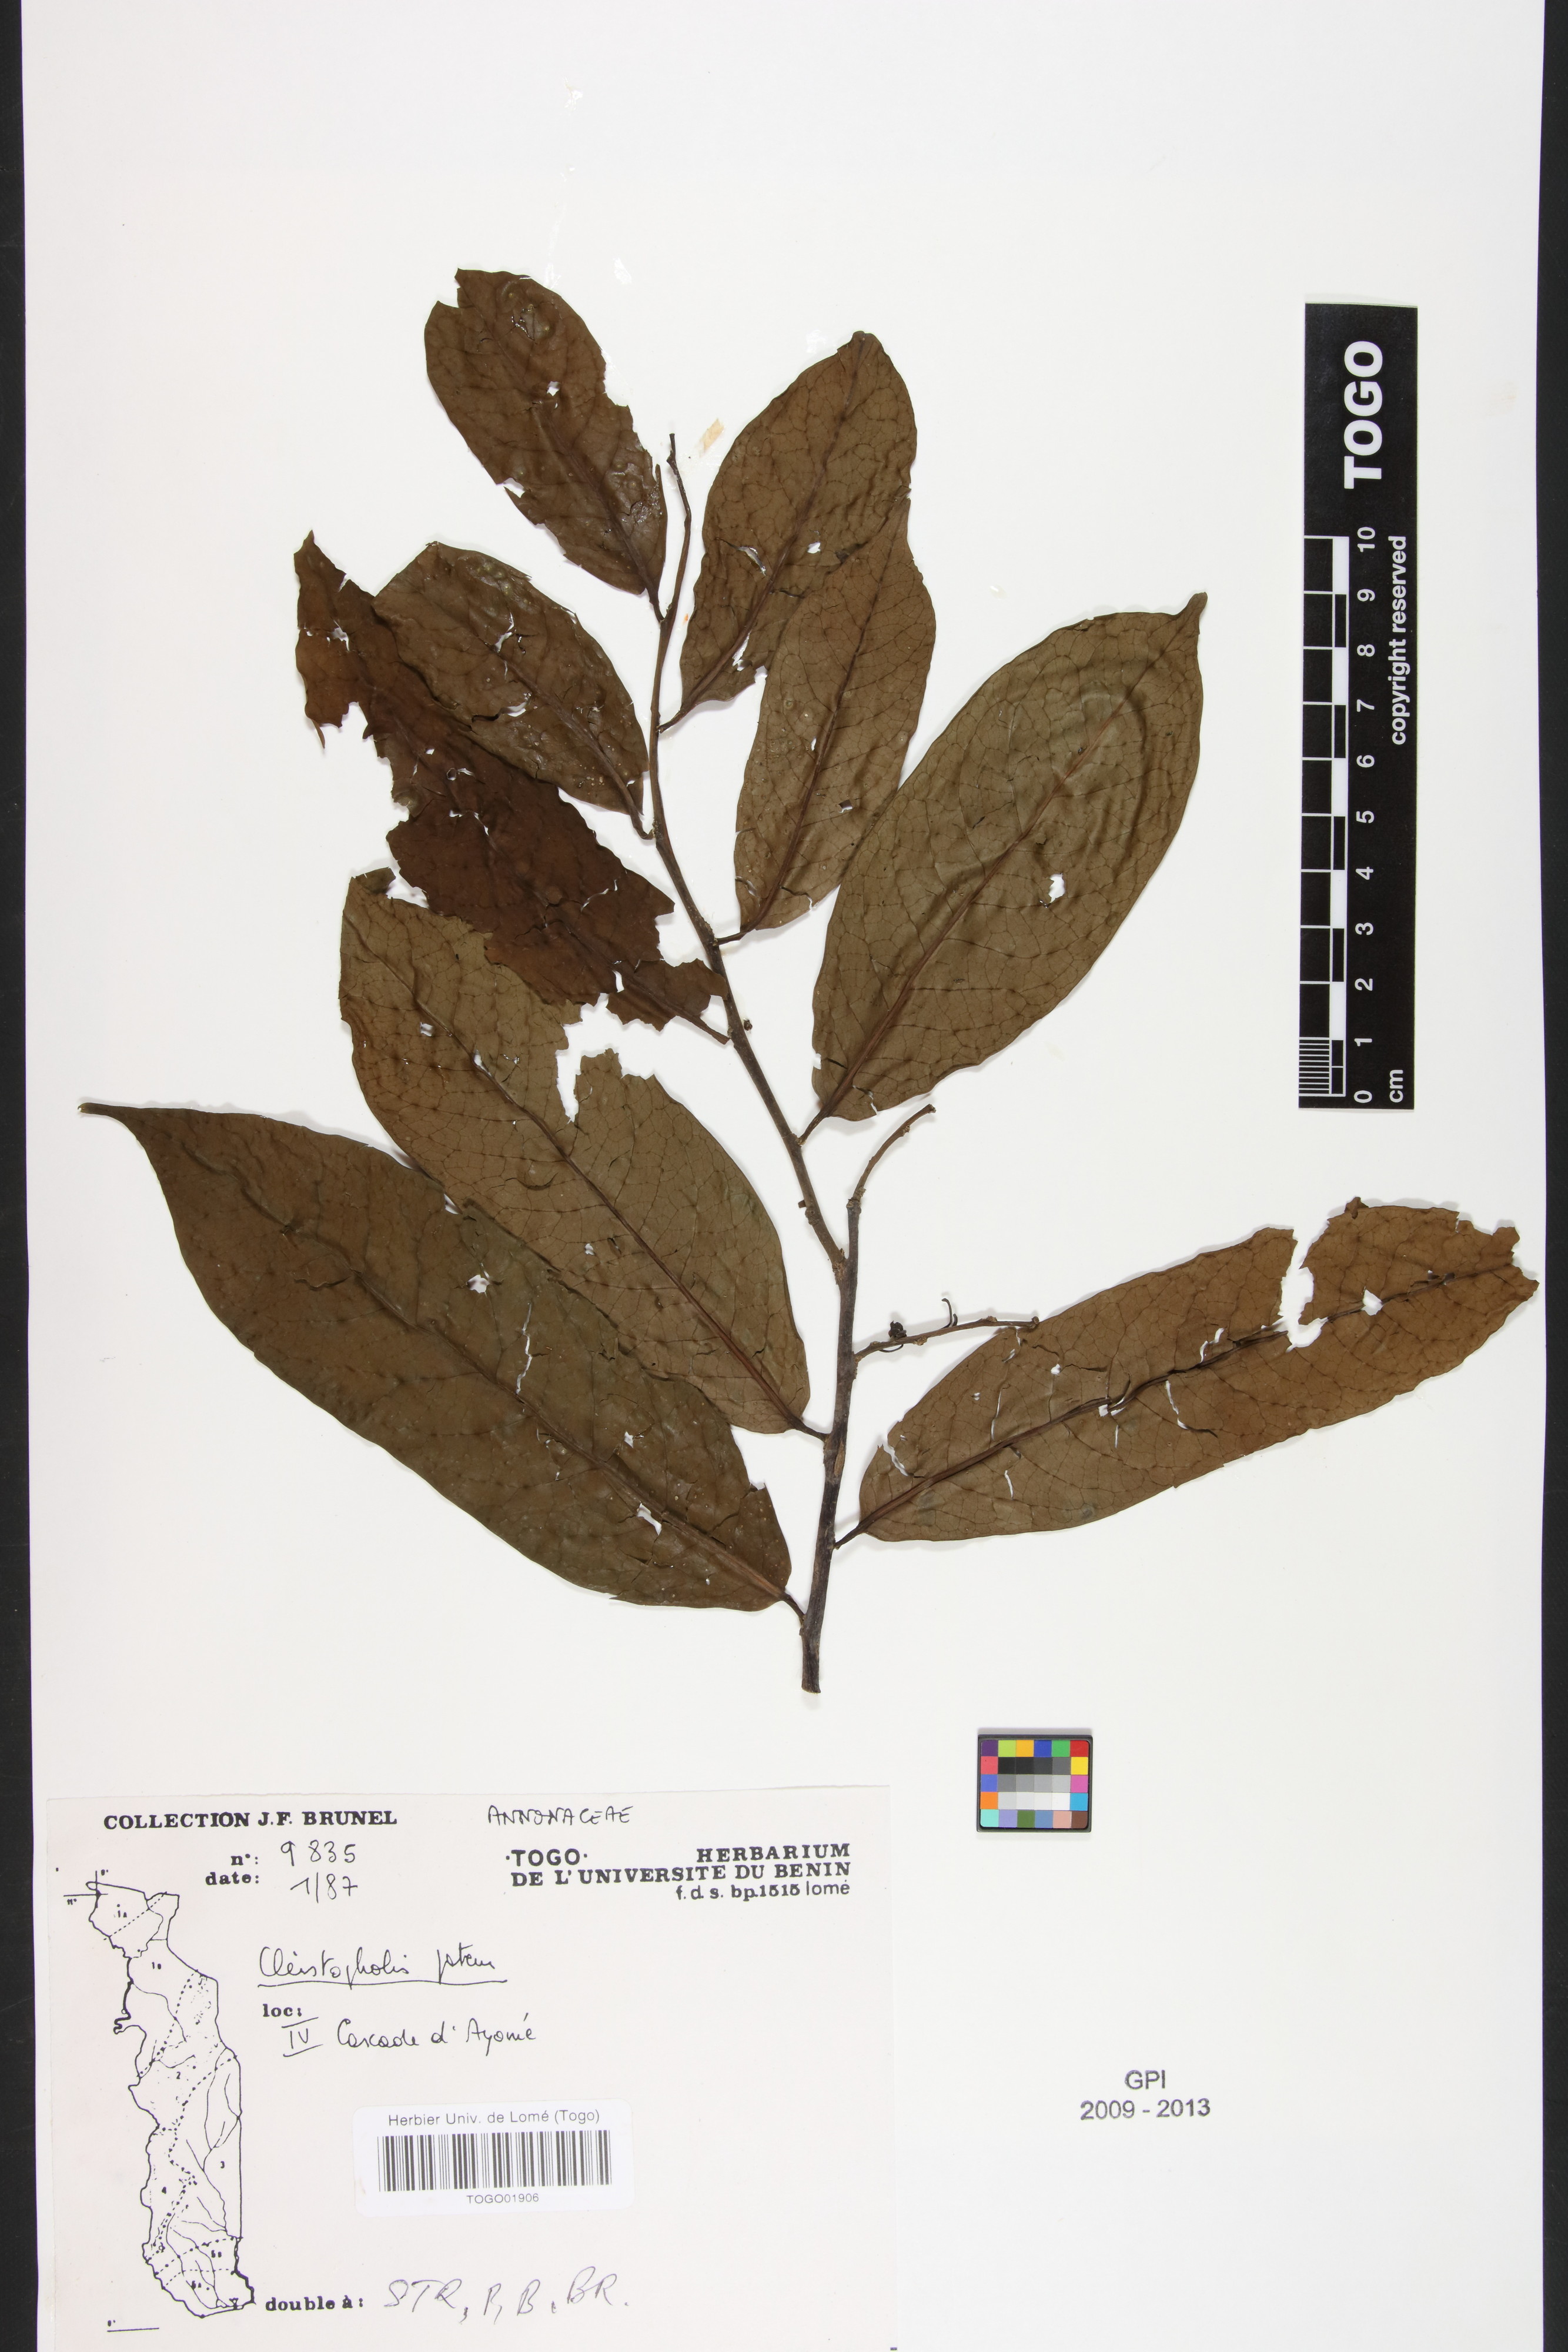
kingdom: Plantae
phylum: Tracheophyta
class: Magnoliopsida
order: Magnoliales
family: Annonaceae
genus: Cleistopholis
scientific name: Cleistopholis patens
